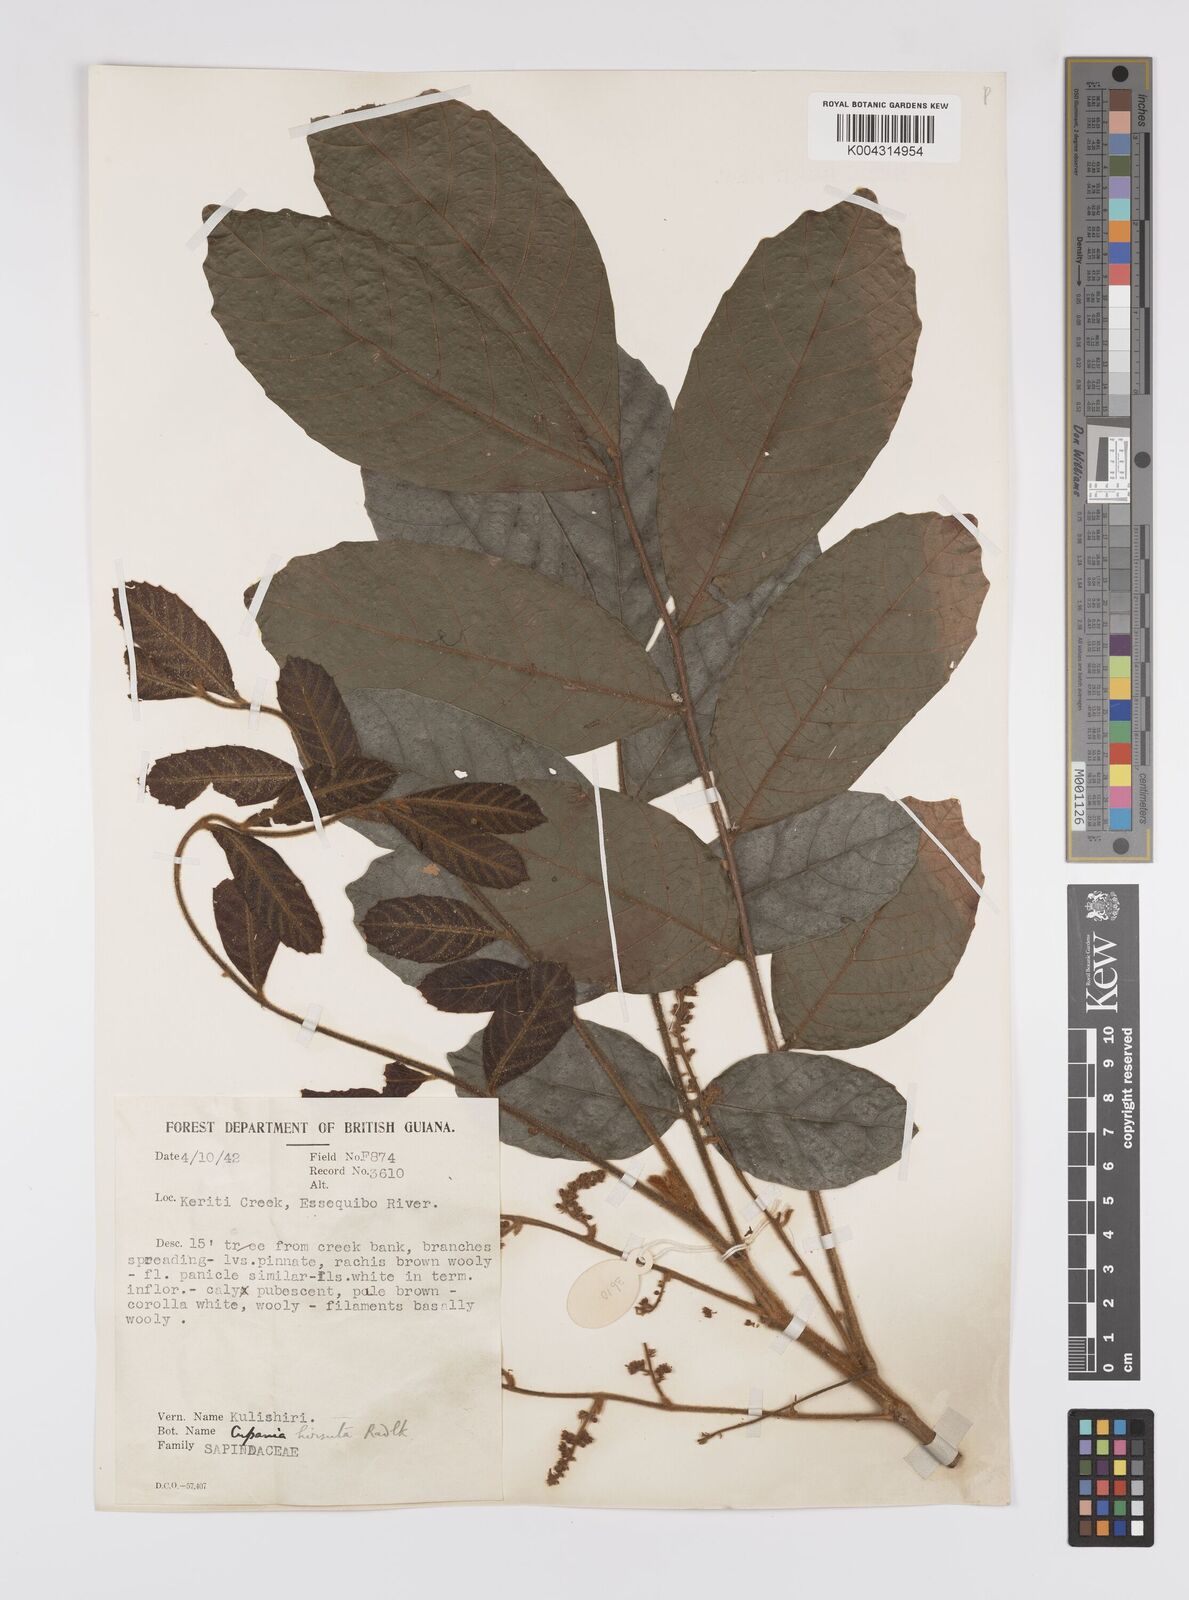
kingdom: Plantae
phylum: Tracheophyta
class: Magnoliopsida
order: Sapindales
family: Sapindaceae
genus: Cupania
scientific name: Cupania hirsuta
